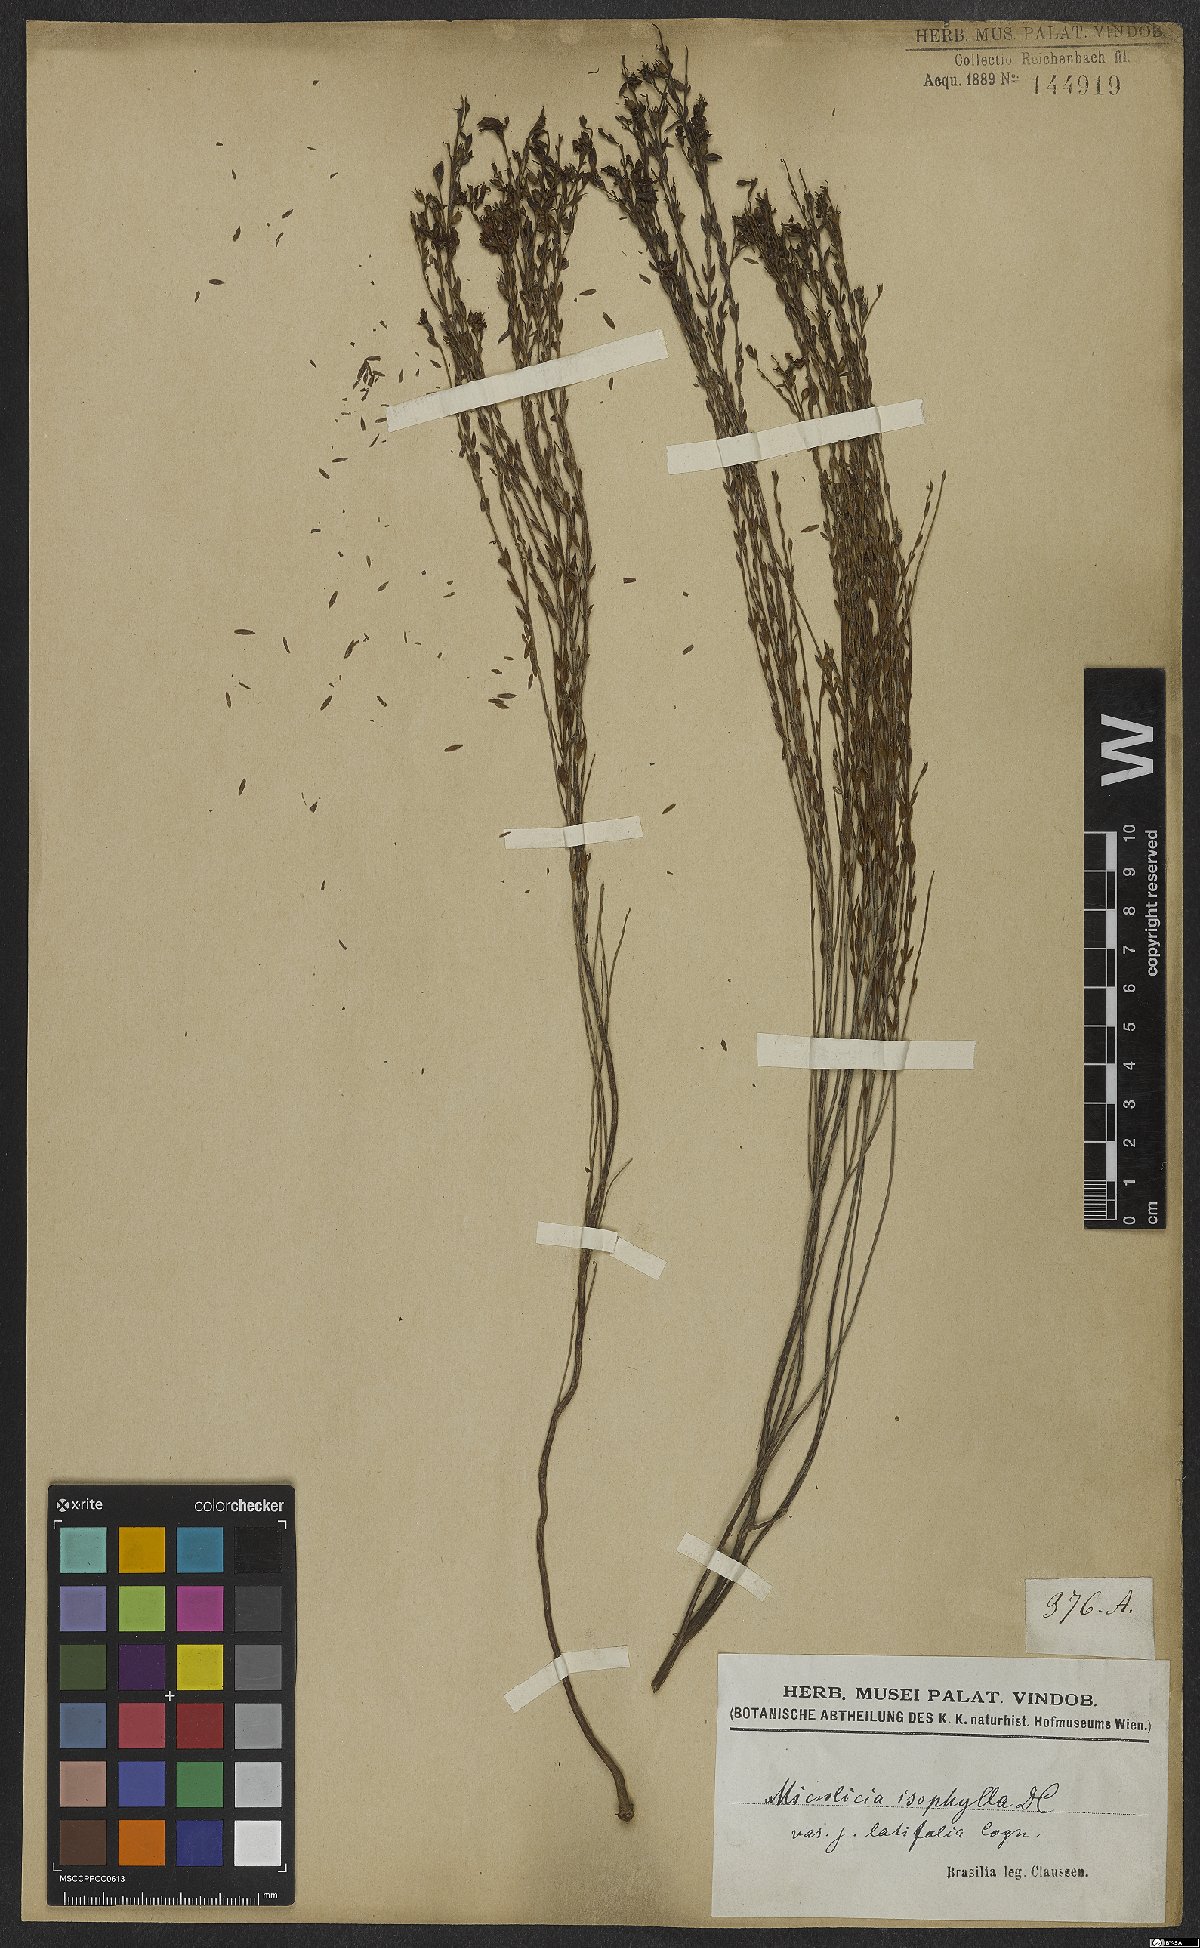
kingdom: Plantae
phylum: Tracheophyta
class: Magnoliopsida
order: Myrtales
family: Melastomataceae
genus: Microlicia
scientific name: Microlicia isophylla
